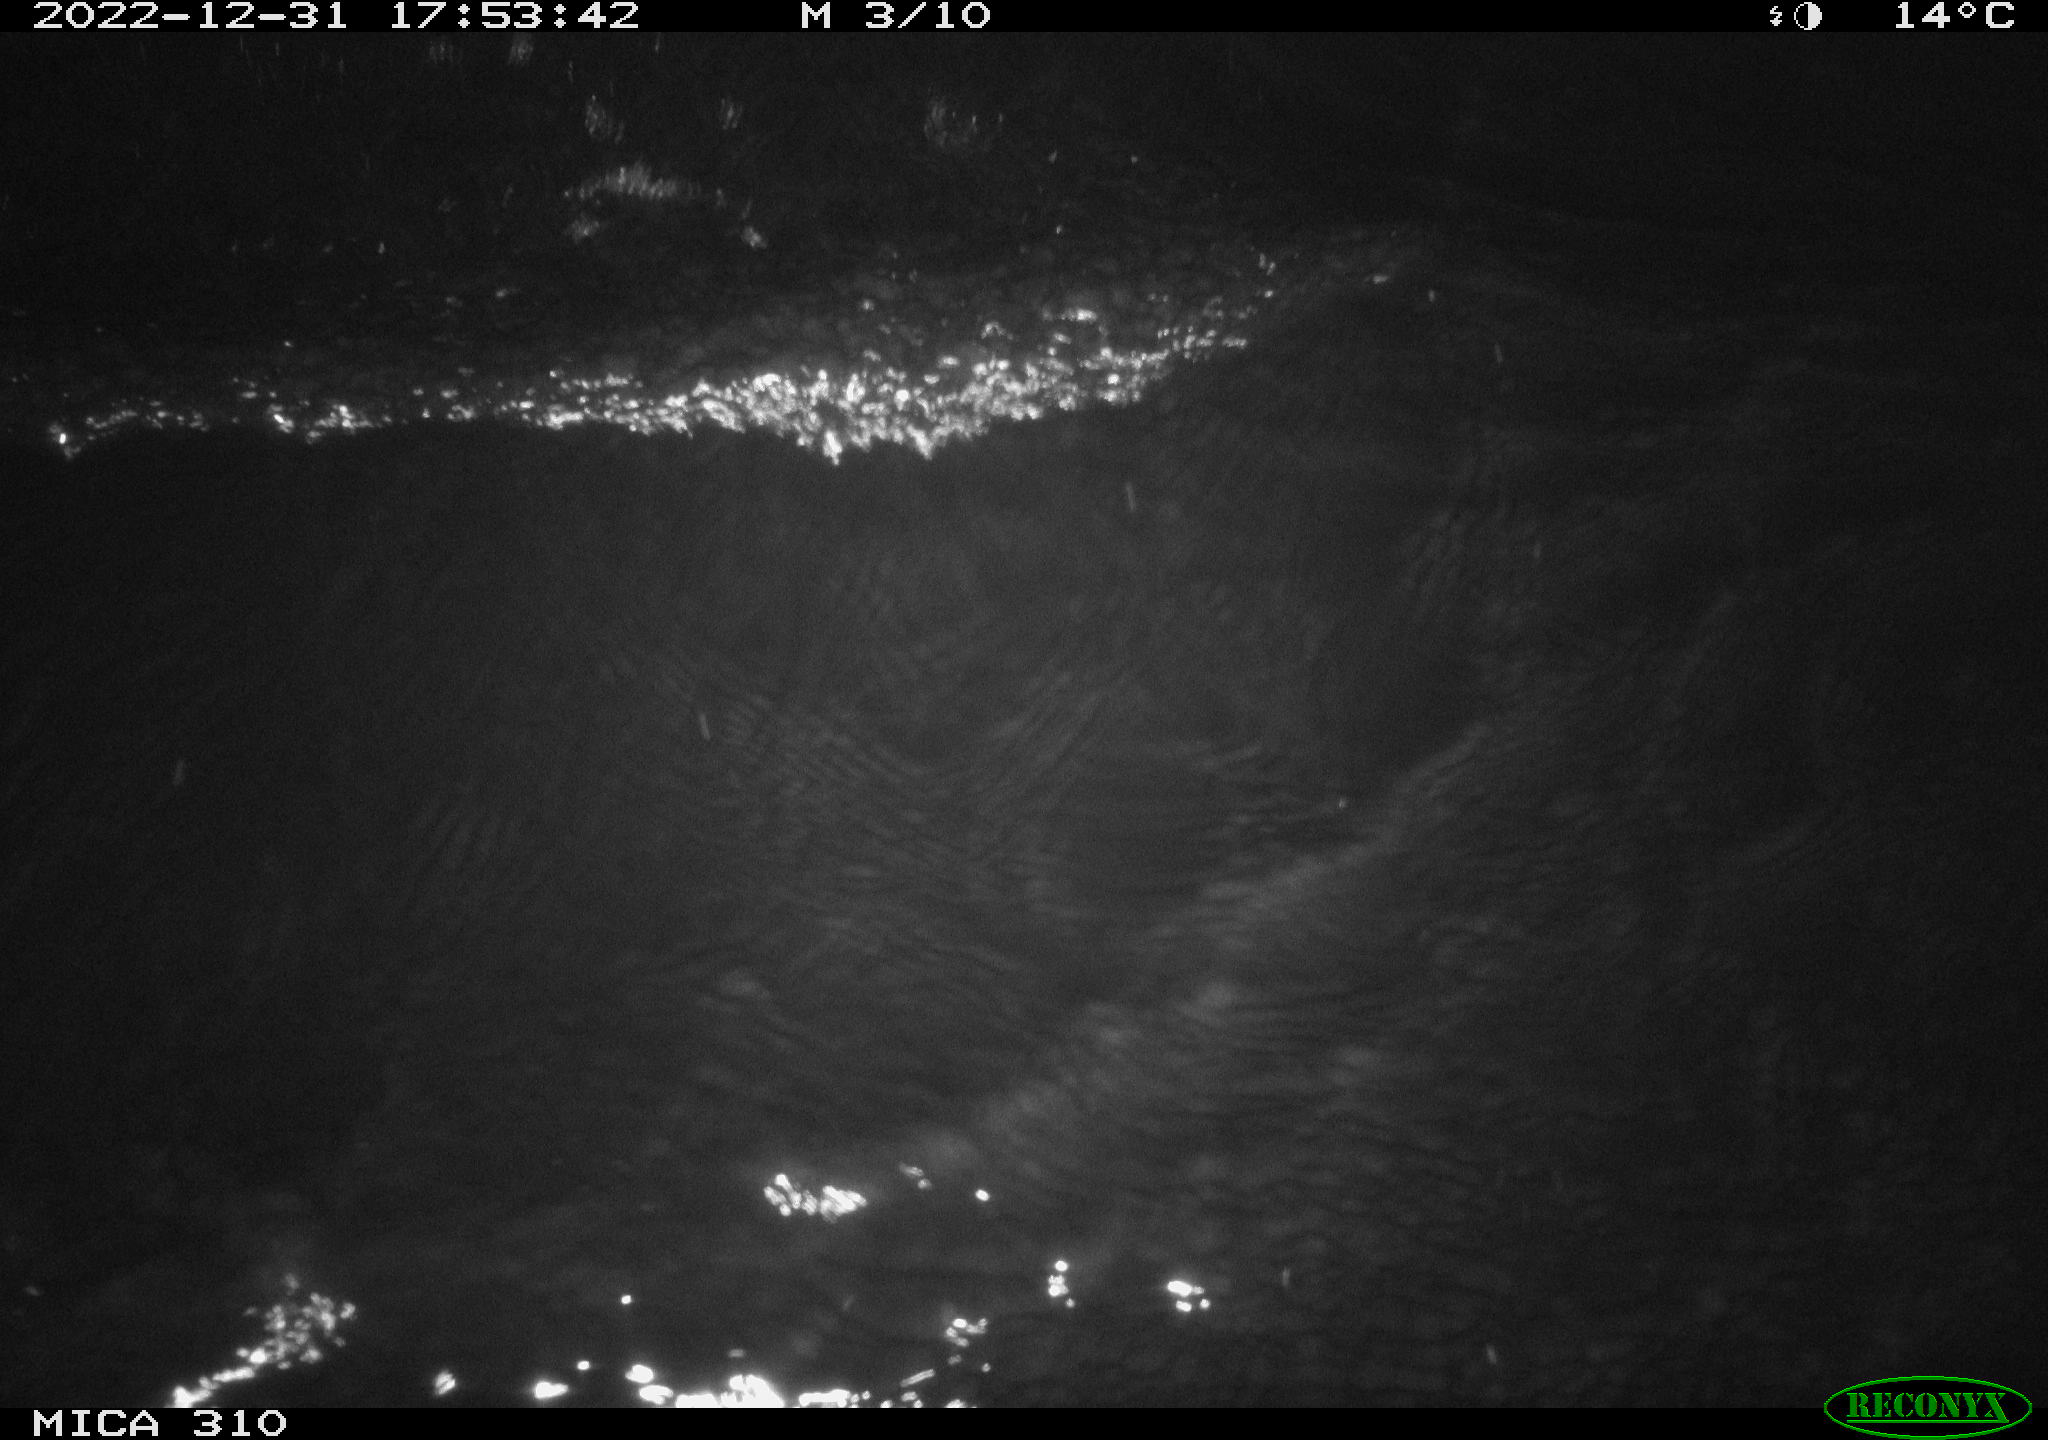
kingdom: Animalia
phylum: Chordata
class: Mammalia
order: Rodentia
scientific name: Rodentia
